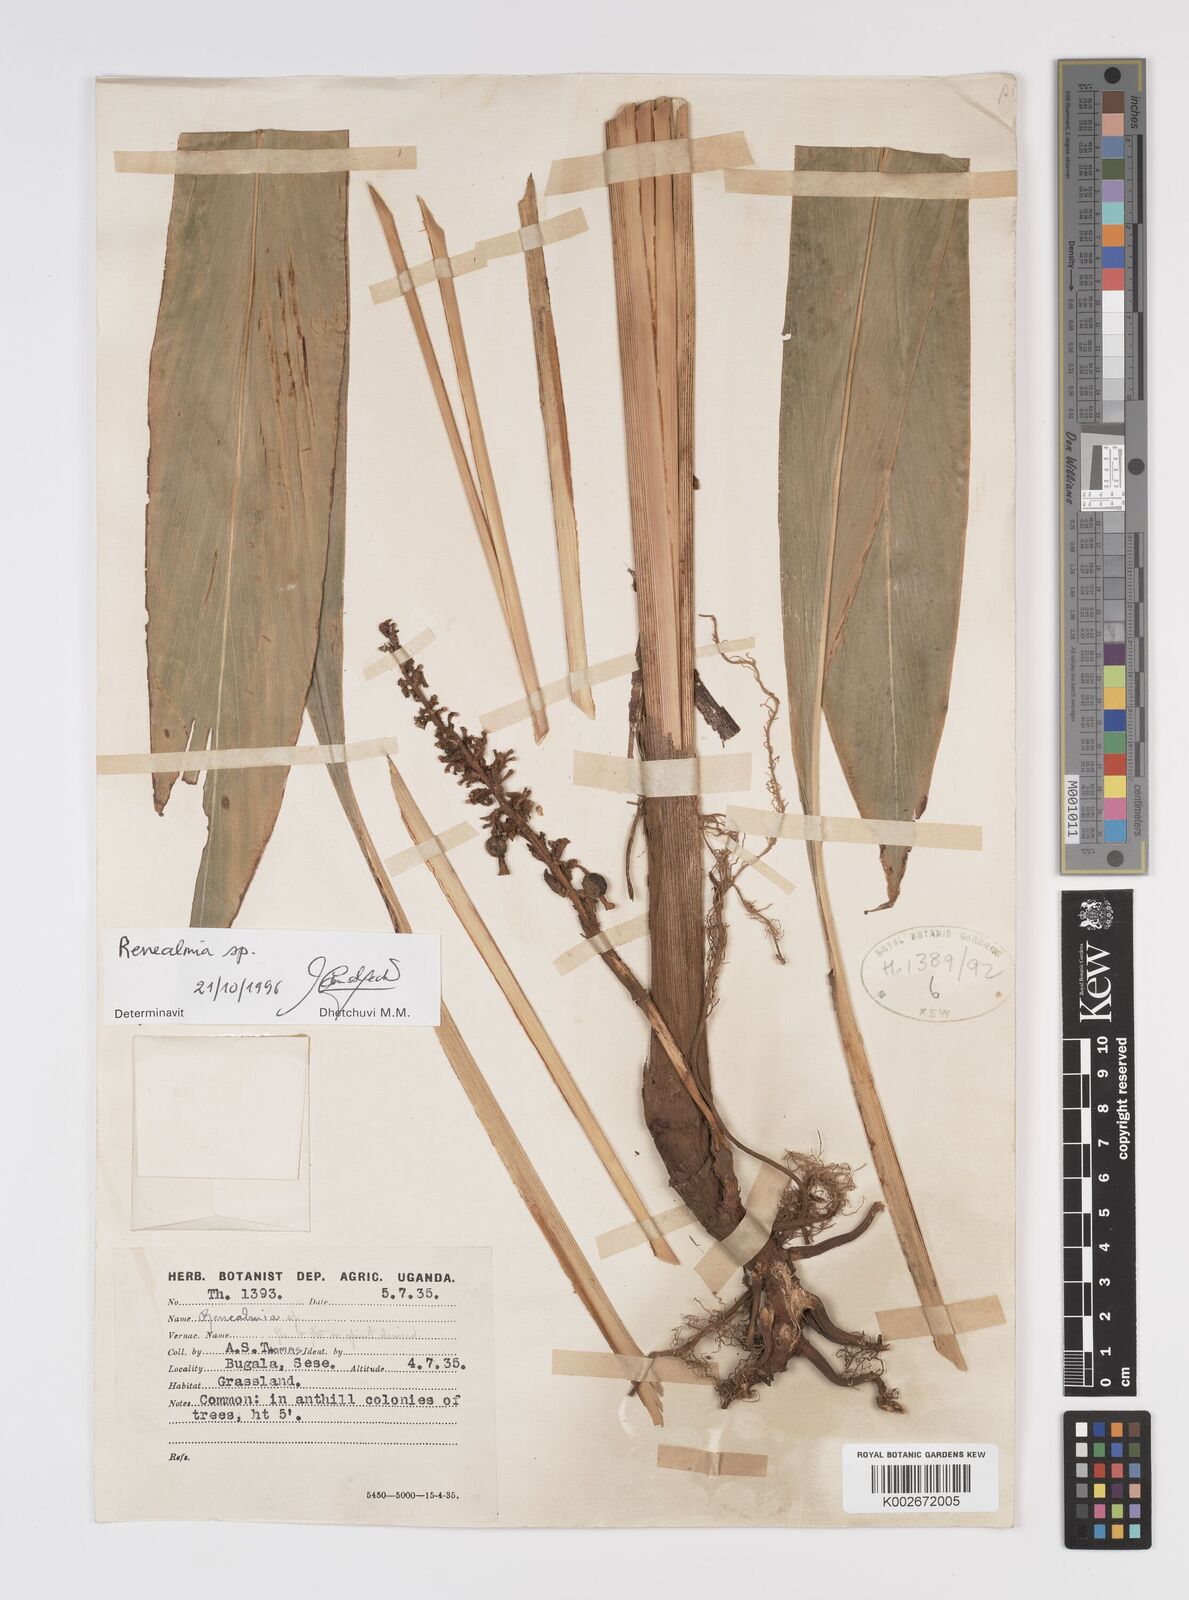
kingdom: Plantae
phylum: Tracheophyta
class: Liliopsida
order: Zingiberales
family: Zingiberaceae
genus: Renealmia
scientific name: Renealmia
